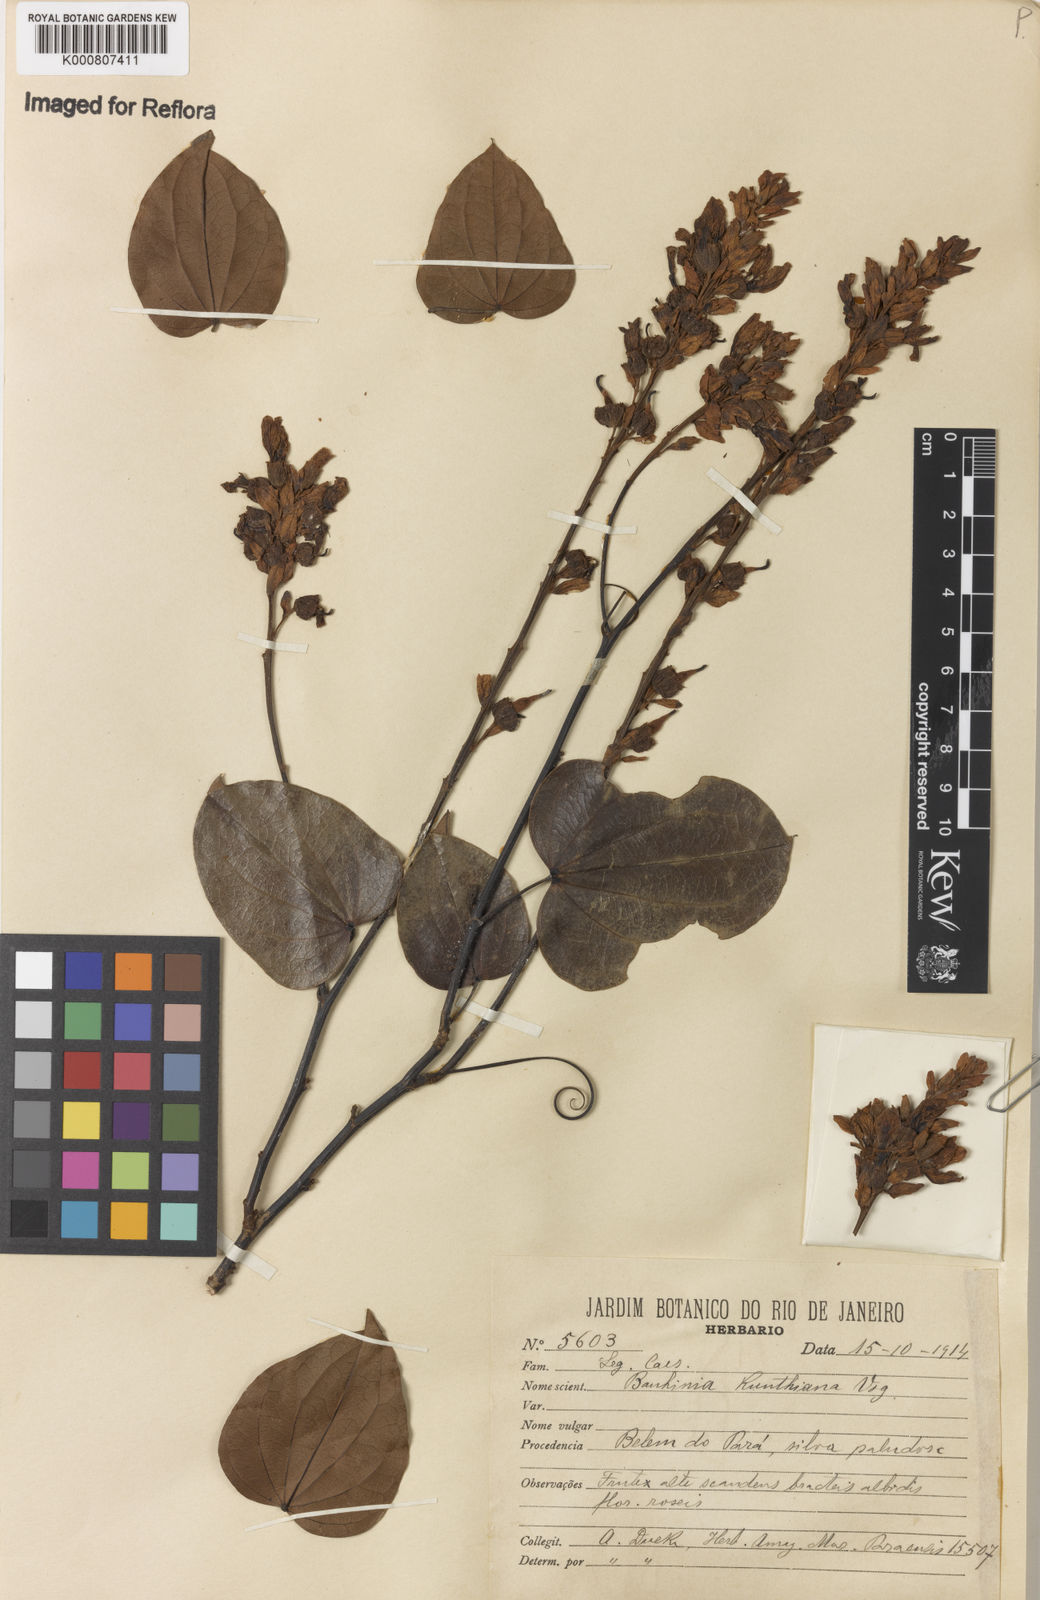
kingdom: Plantae
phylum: Tracheophyta
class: Magnoliopsida
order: Fabales
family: Fabaceae
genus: Schnella
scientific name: Schnella kunthiana
